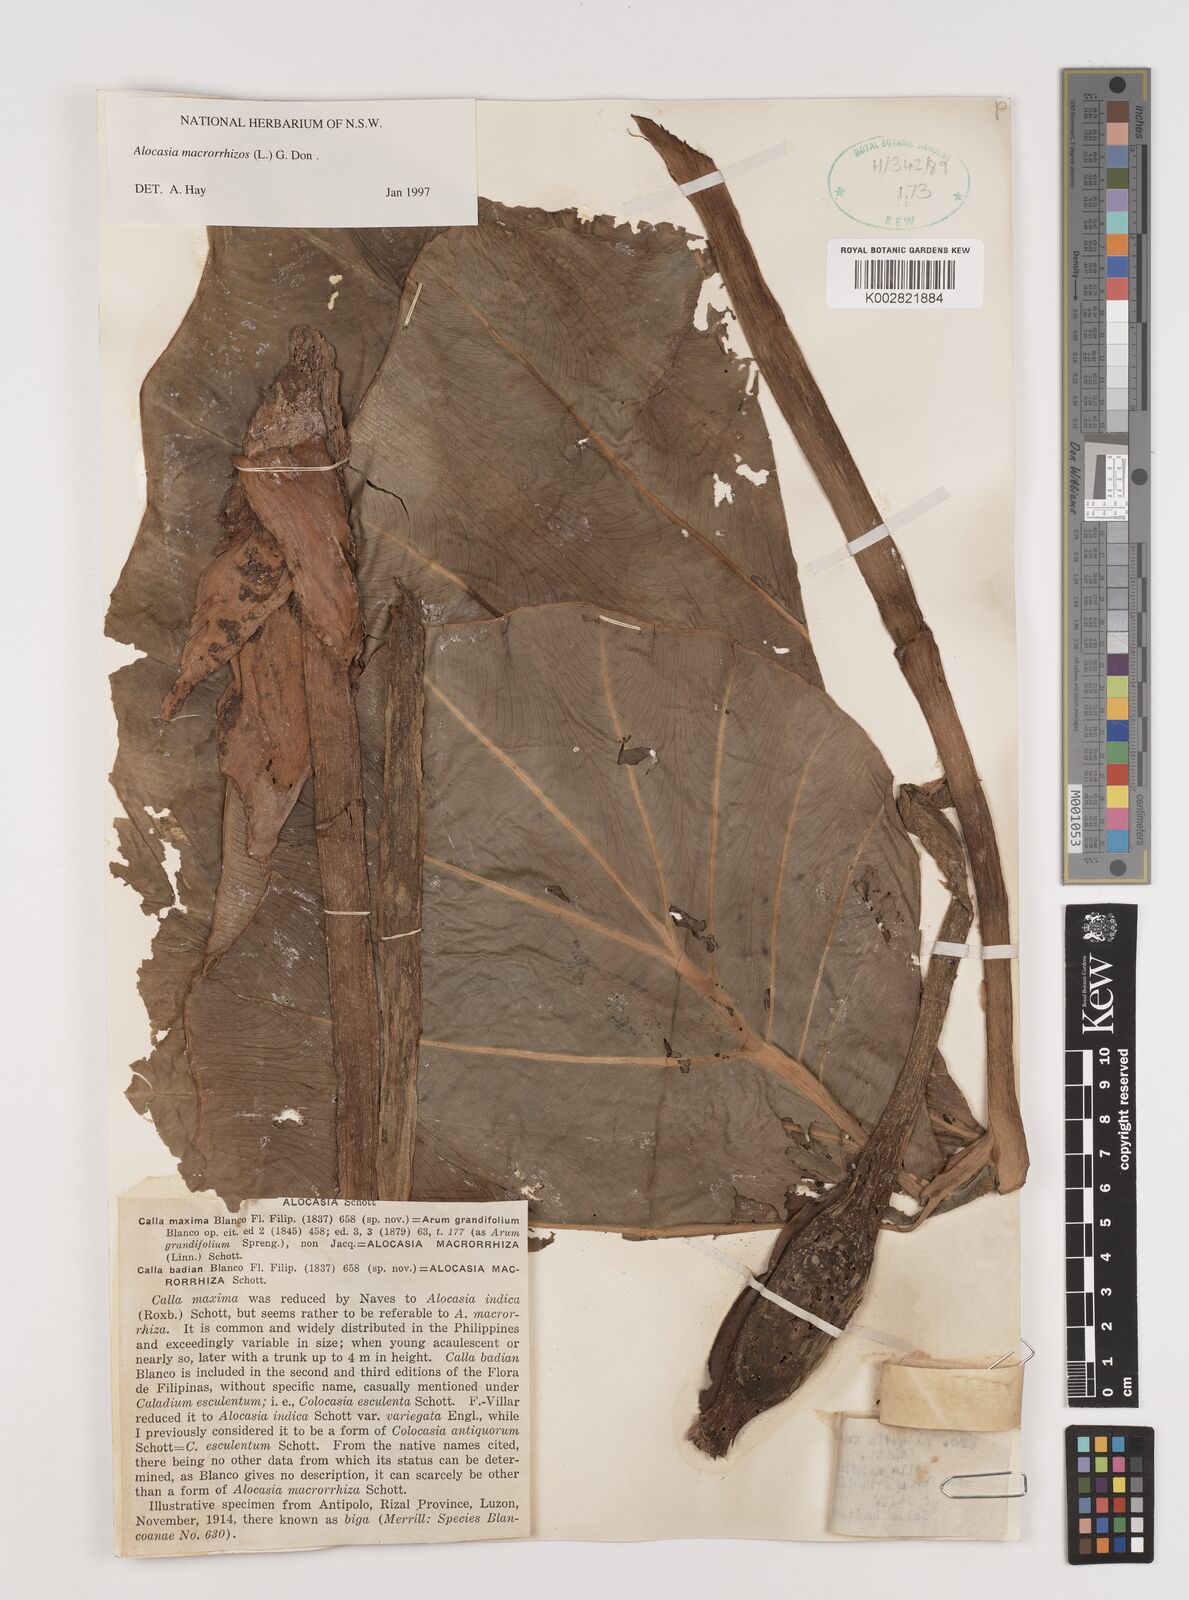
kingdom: Plantae
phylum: Tracheophyta
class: Liliopsida
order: Alismatales
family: Araceae
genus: Alocasia
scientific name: Alocasia macrorrhizos
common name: Giant taro
